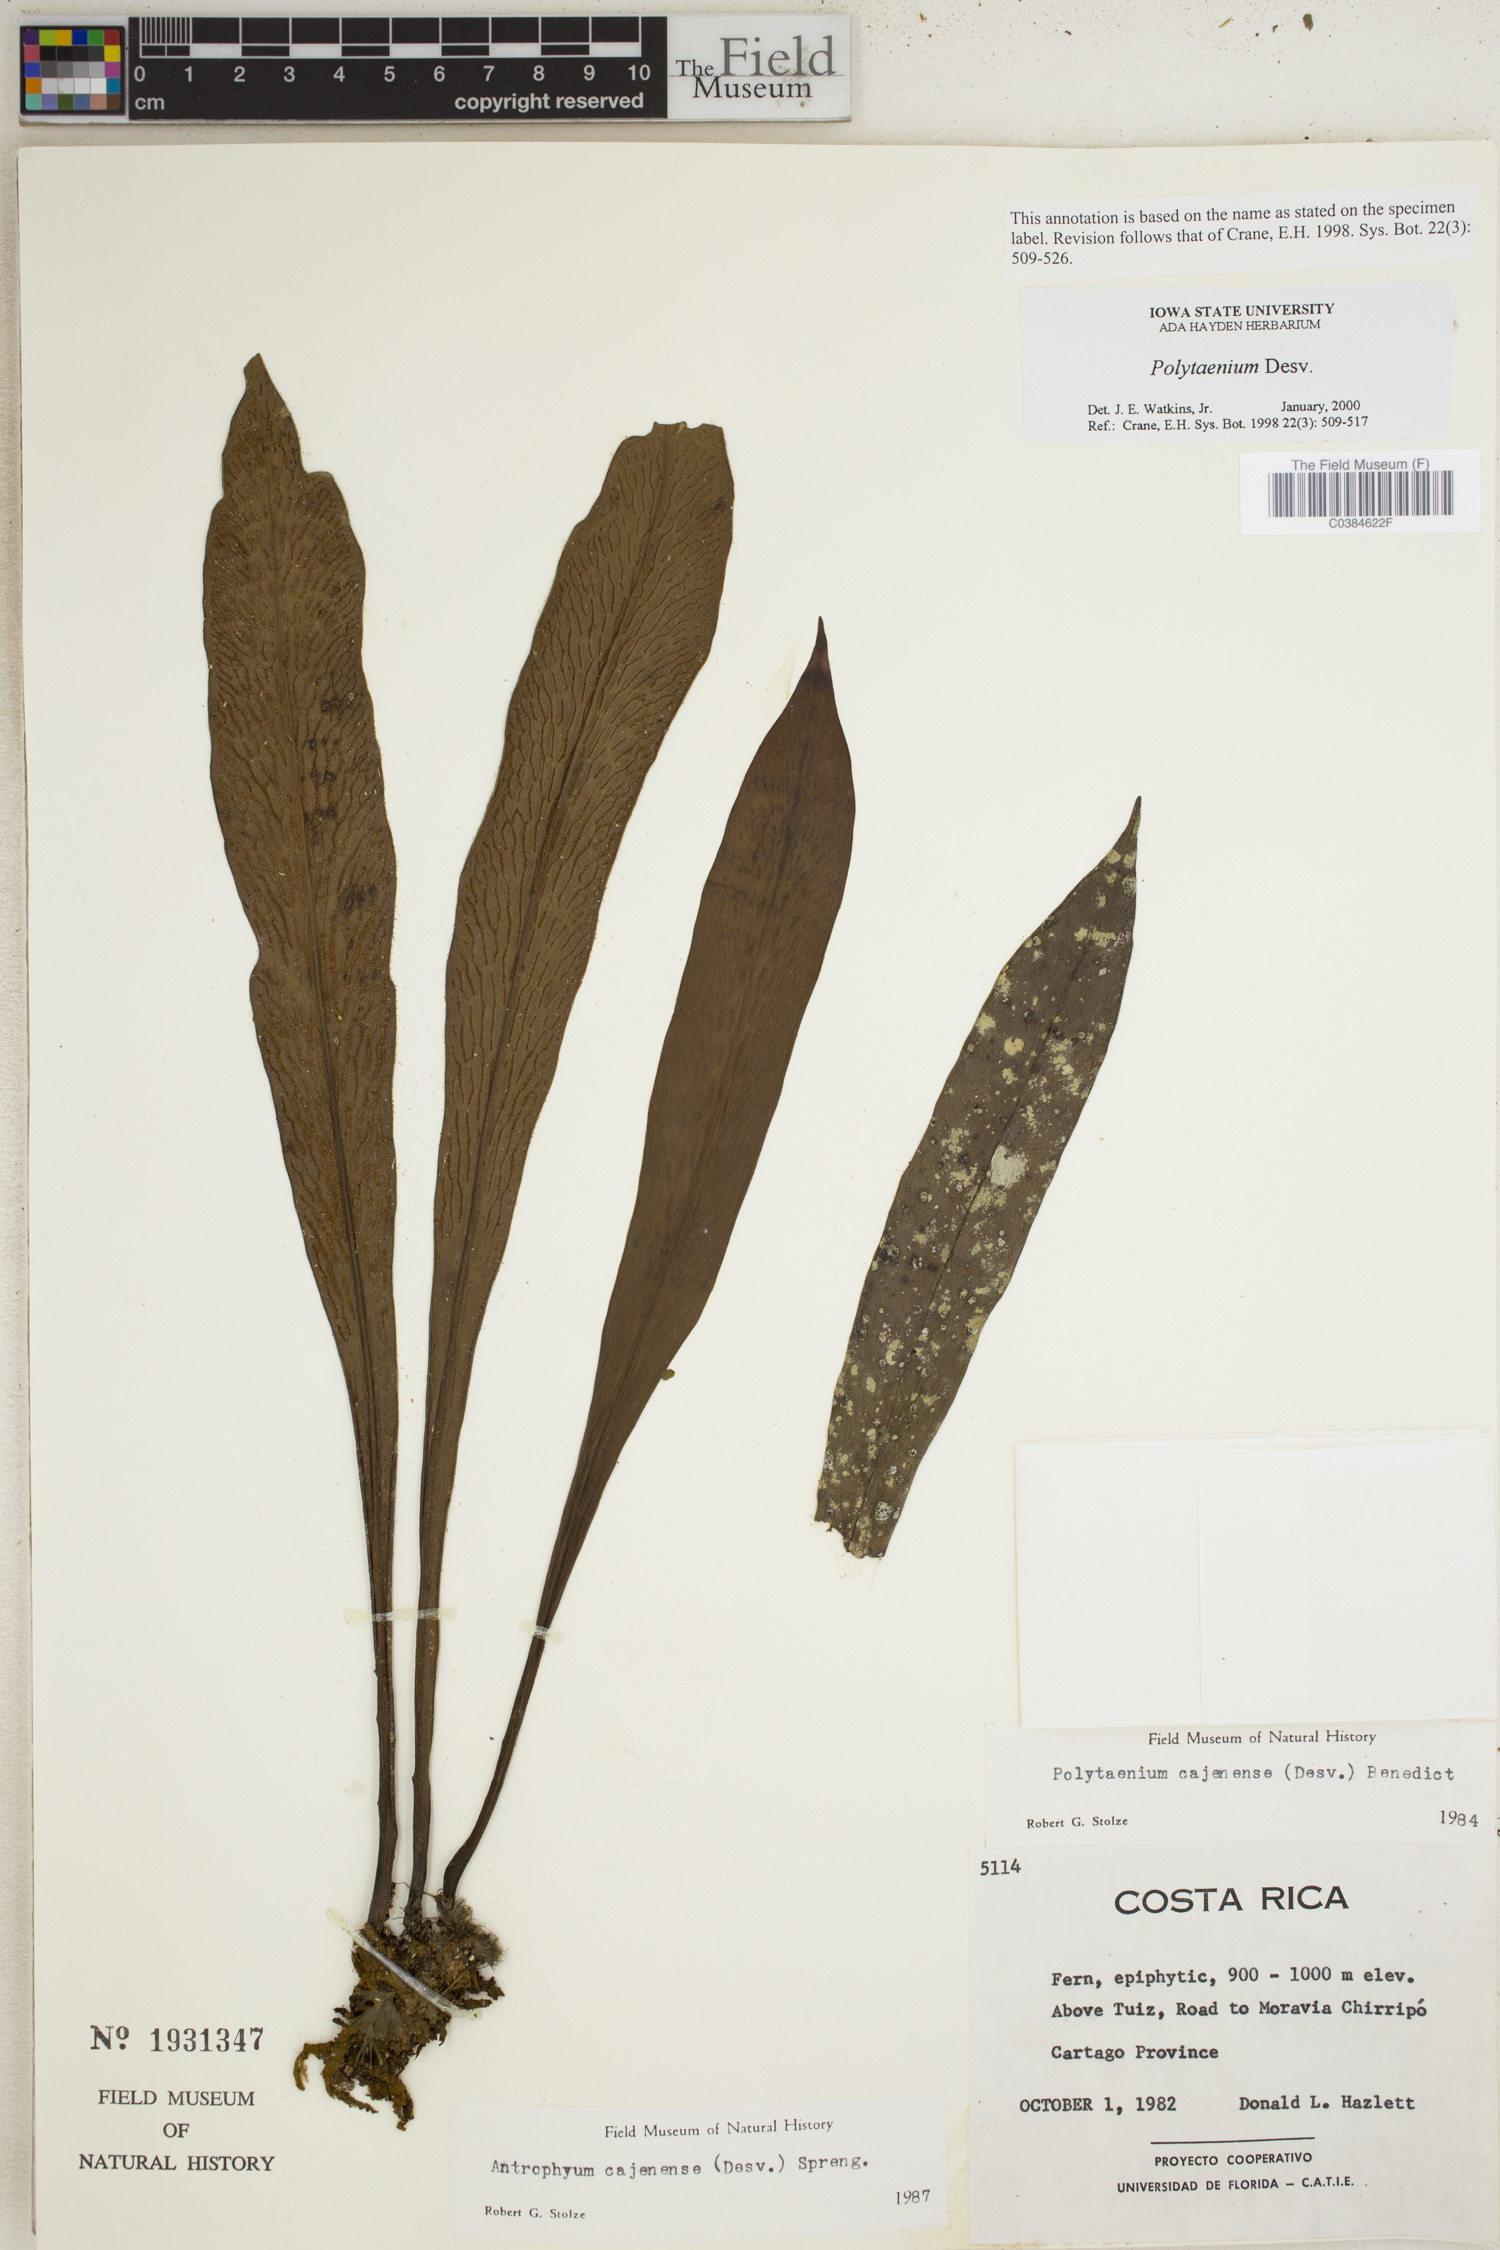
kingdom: Plantae
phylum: Tracheophyta
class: Polypodiopsida
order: Polypodiales
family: Pteridaceae
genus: Polytaenium
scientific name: Polytaenium
